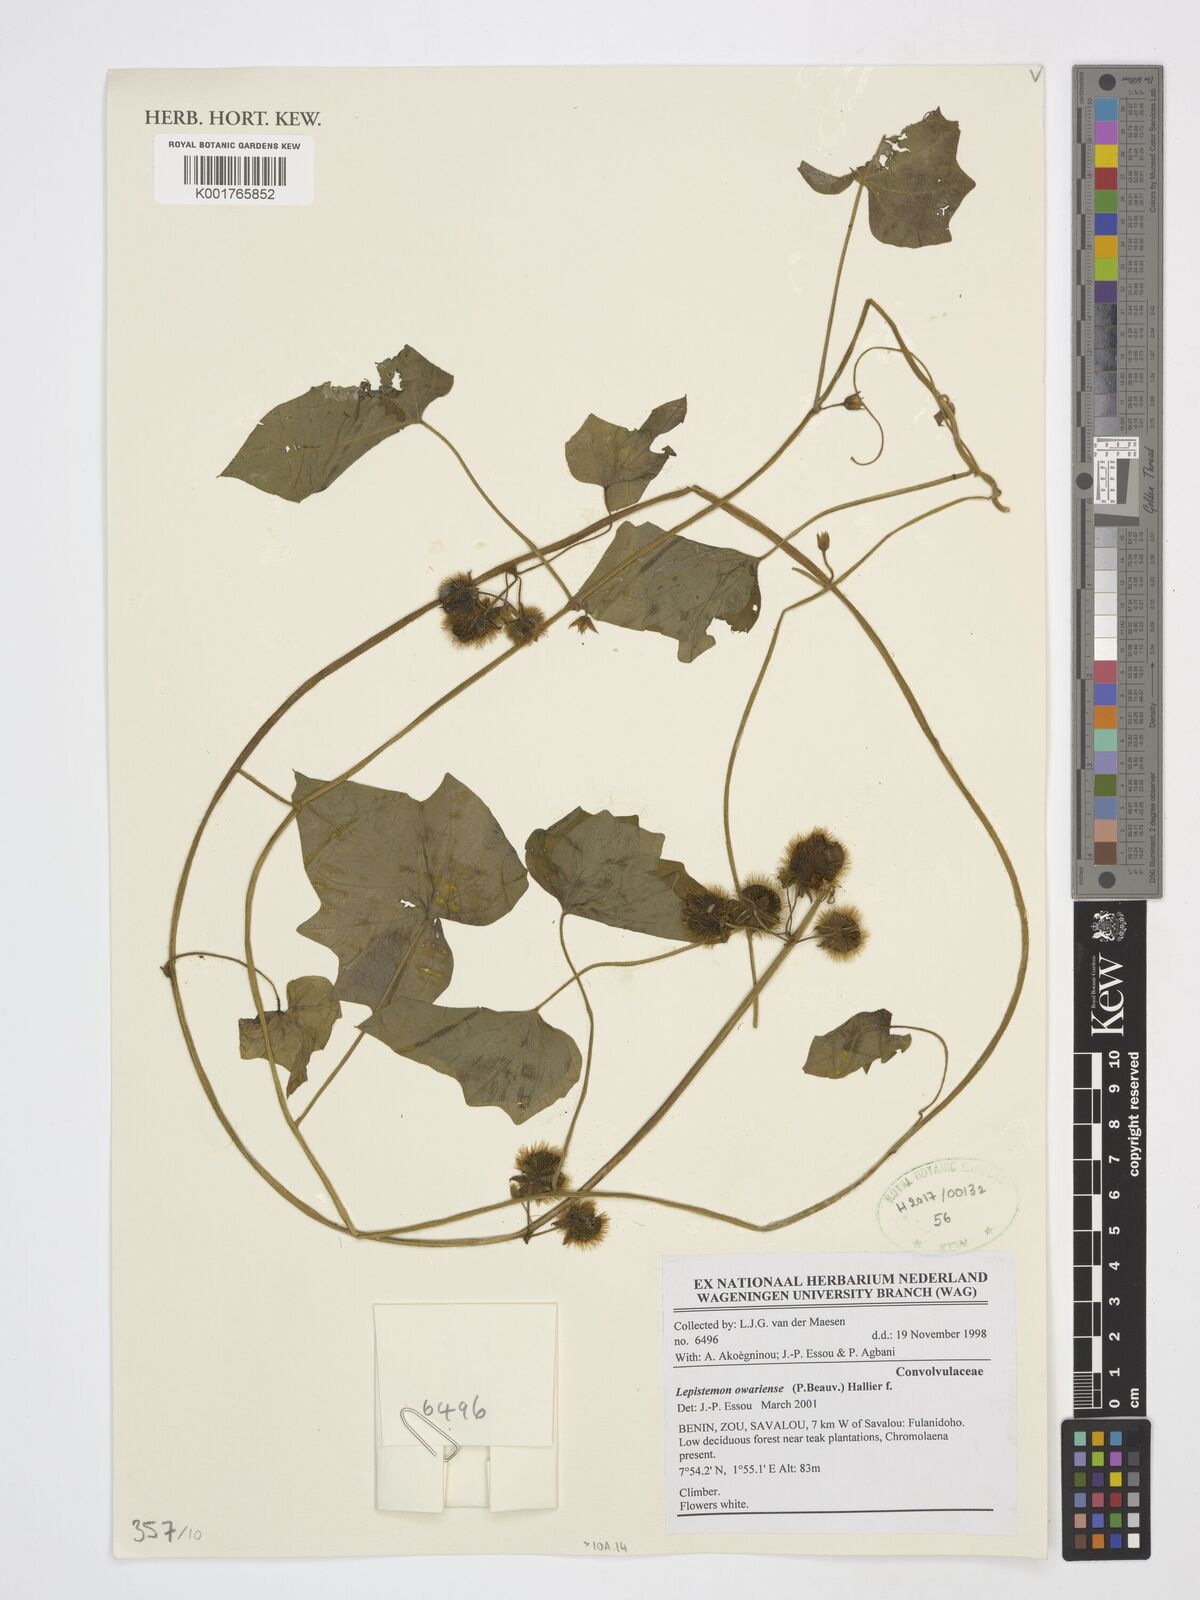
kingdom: Plantae
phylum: Tracheophyta
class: Magnoliopsida
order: Solanales
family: Convolvulaceae
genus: Lepistemon
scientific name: Lepistemon owariensis
